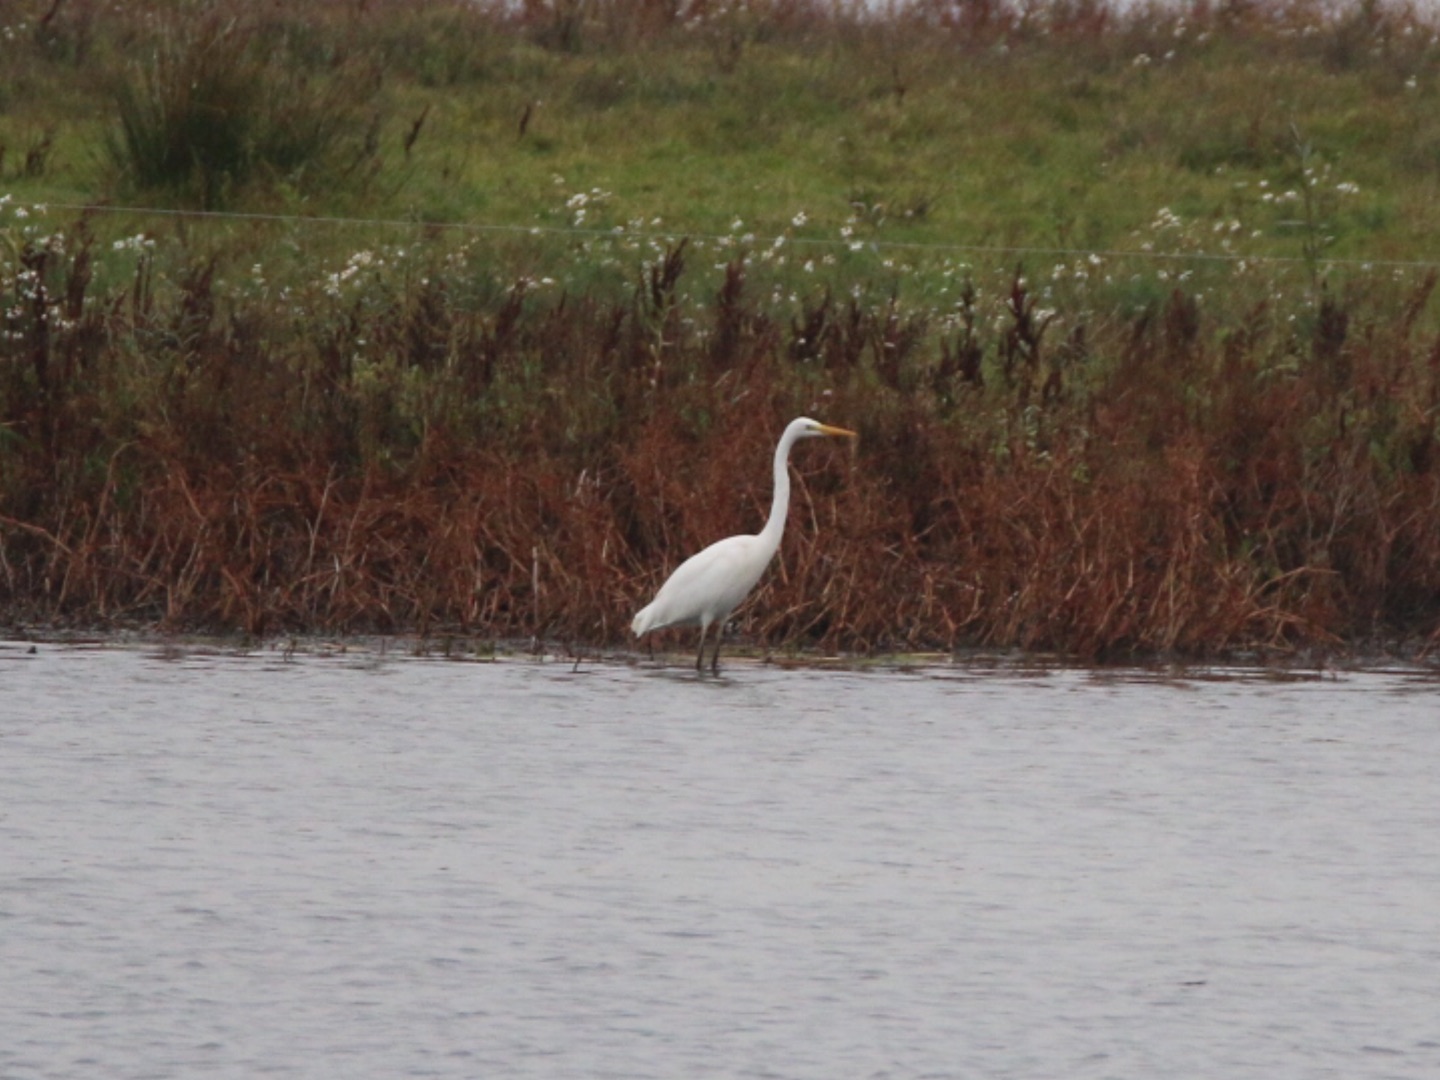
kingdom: Animalia
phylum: Chordata
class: Aves
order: Pelecaniformes
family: Ardeidae
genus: Ardea
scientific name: Ardea alba
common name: Sølvhejre
